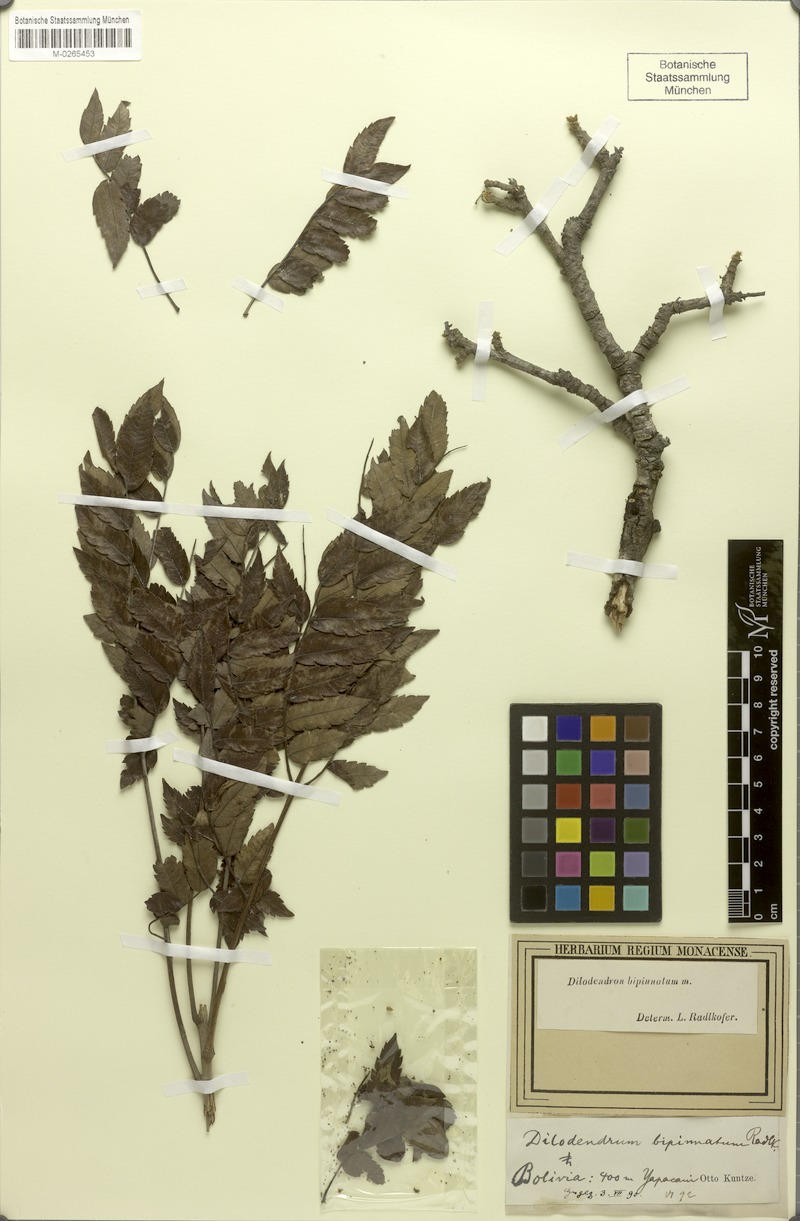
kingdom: Plantae
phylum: Tracheophyta
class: Magnoliopsida
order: Sapindales
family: Sapindaceae
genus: Dilodendron
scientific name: Dilodendron bipinnatum
